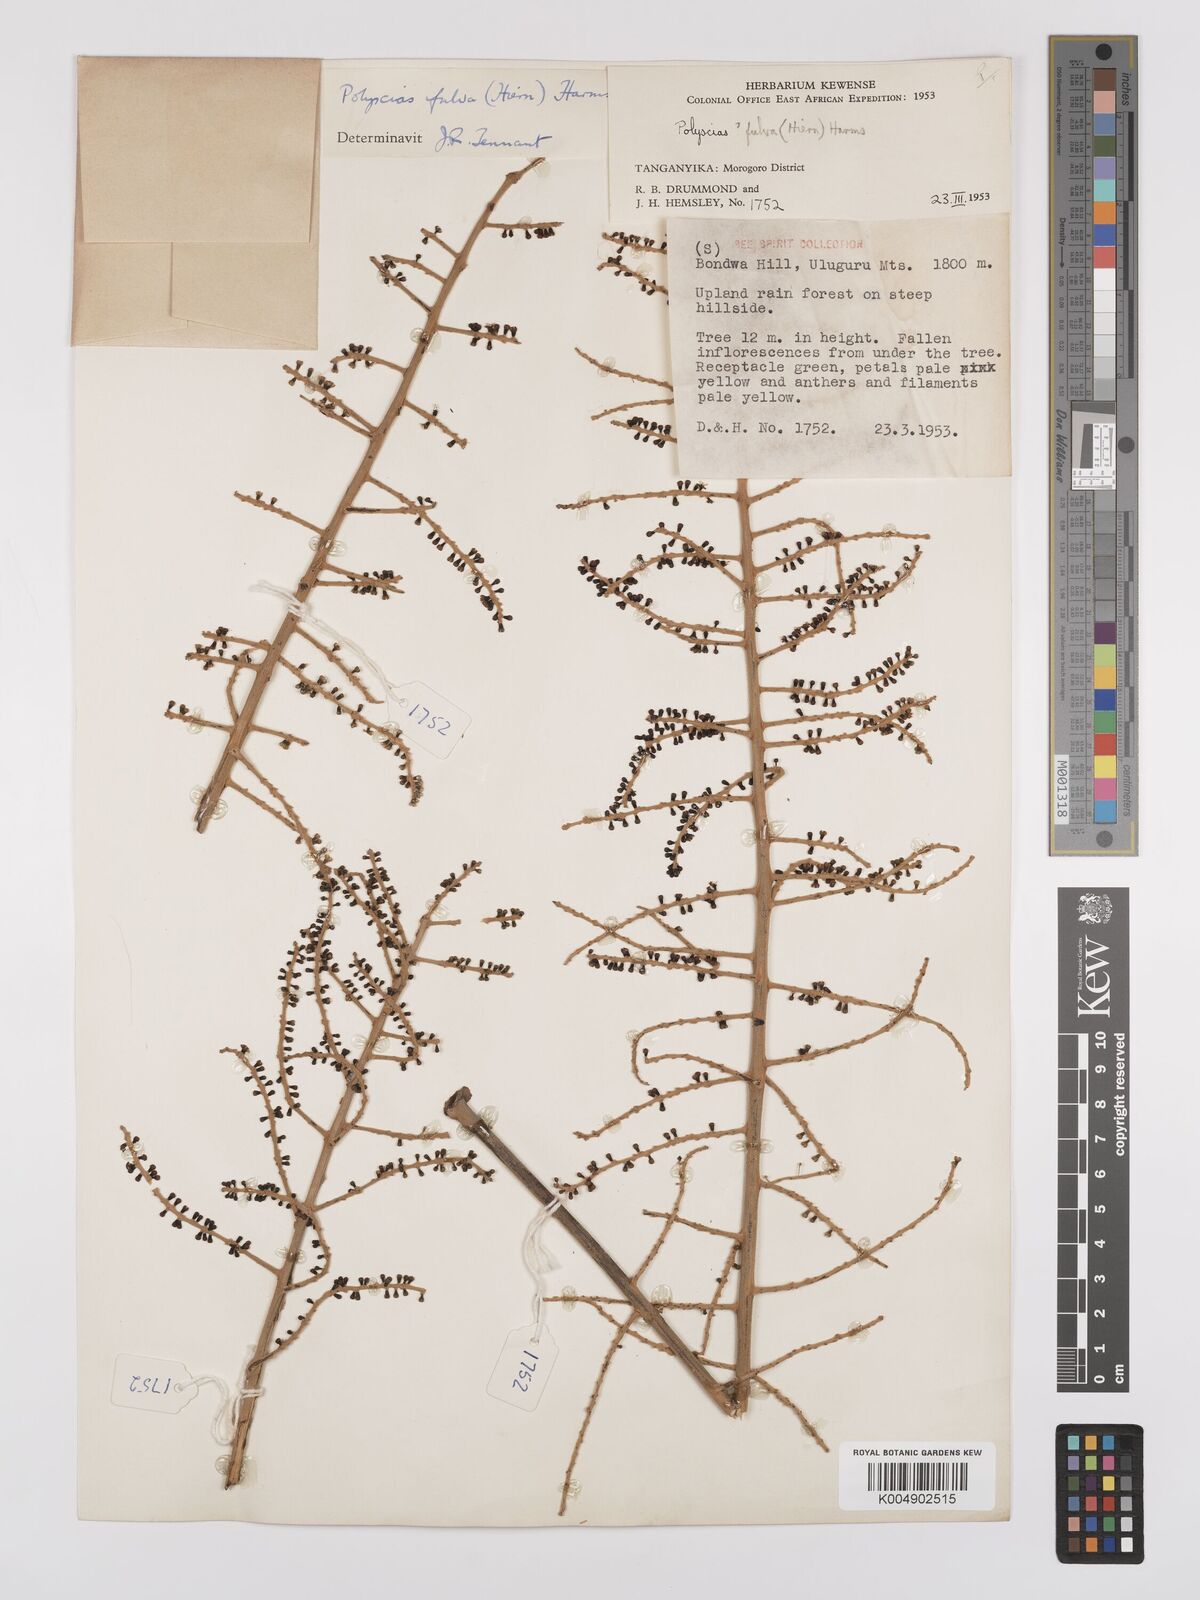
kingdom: Plantae
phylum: Tracheophyta
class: Magnoliopsida
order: Apiales
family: Araliaceae
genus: Polyscias
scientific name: Polyscias fulva
